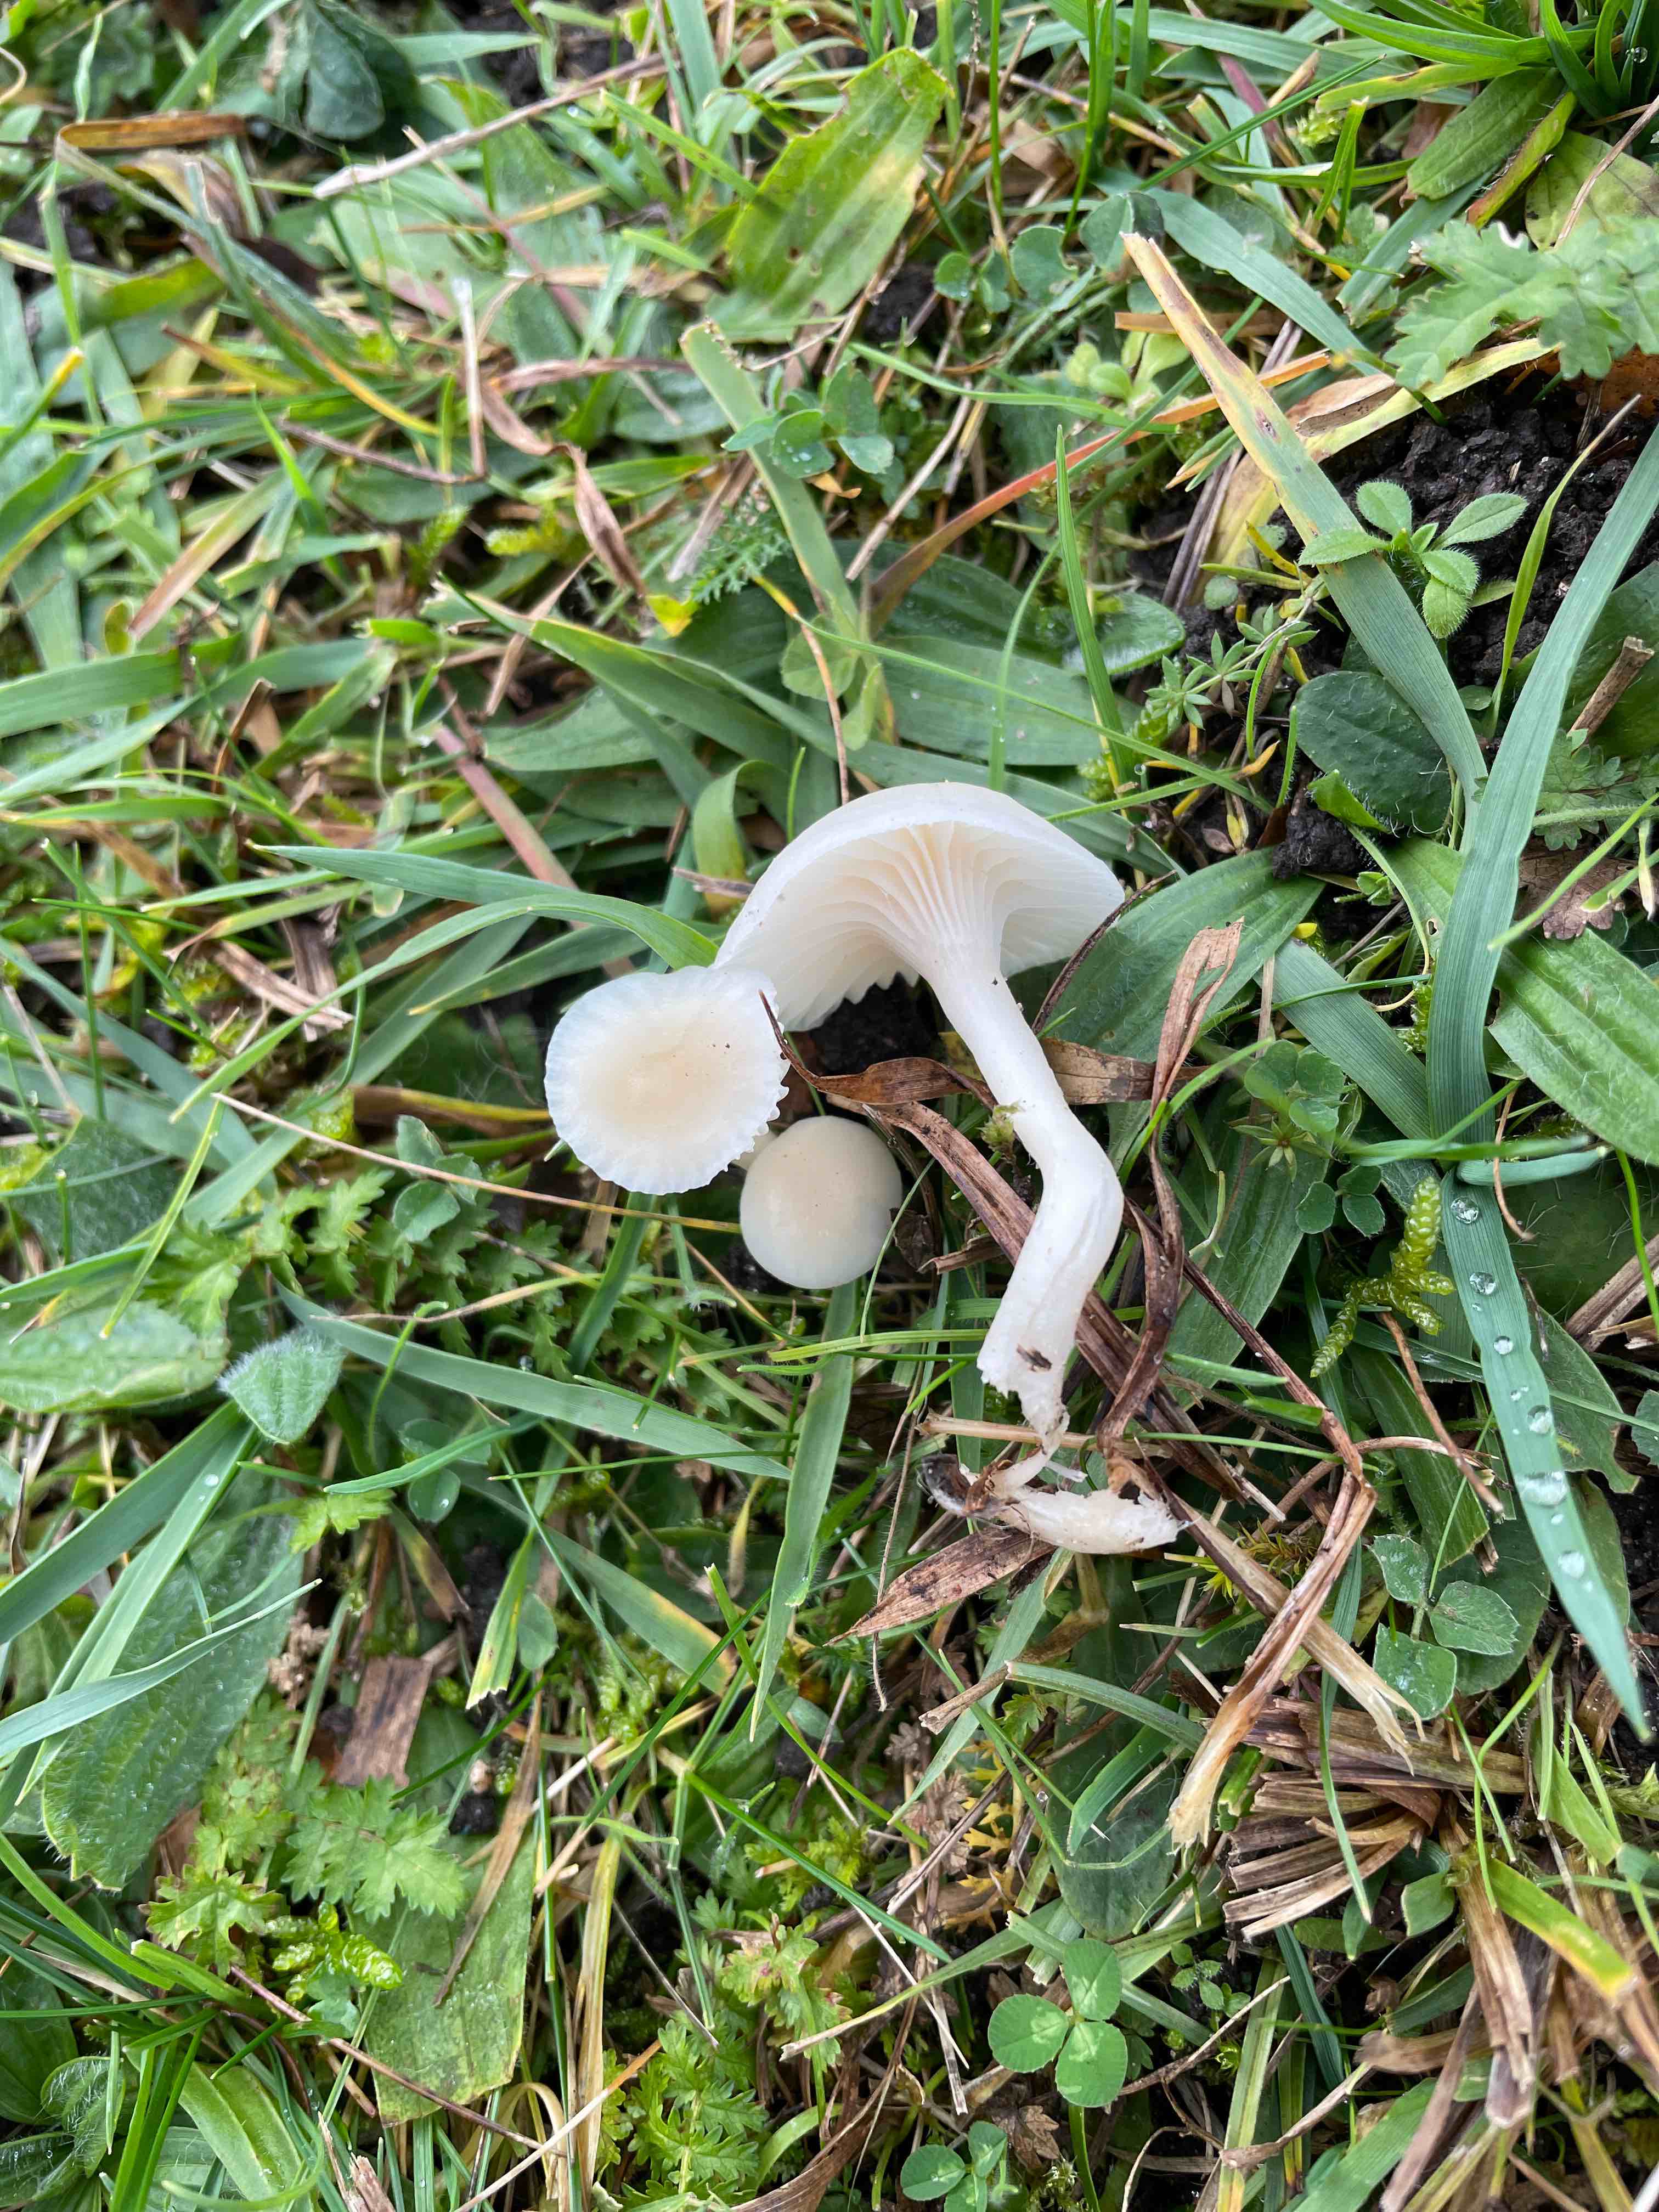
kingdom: Fungi
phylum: Basidiomycota
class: Agaricomycetes
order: Agaricales
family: Hygrophoraceae
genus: Cuphophyllus
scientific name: Cuphophyllus virgineus
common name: snehvid vokshat
